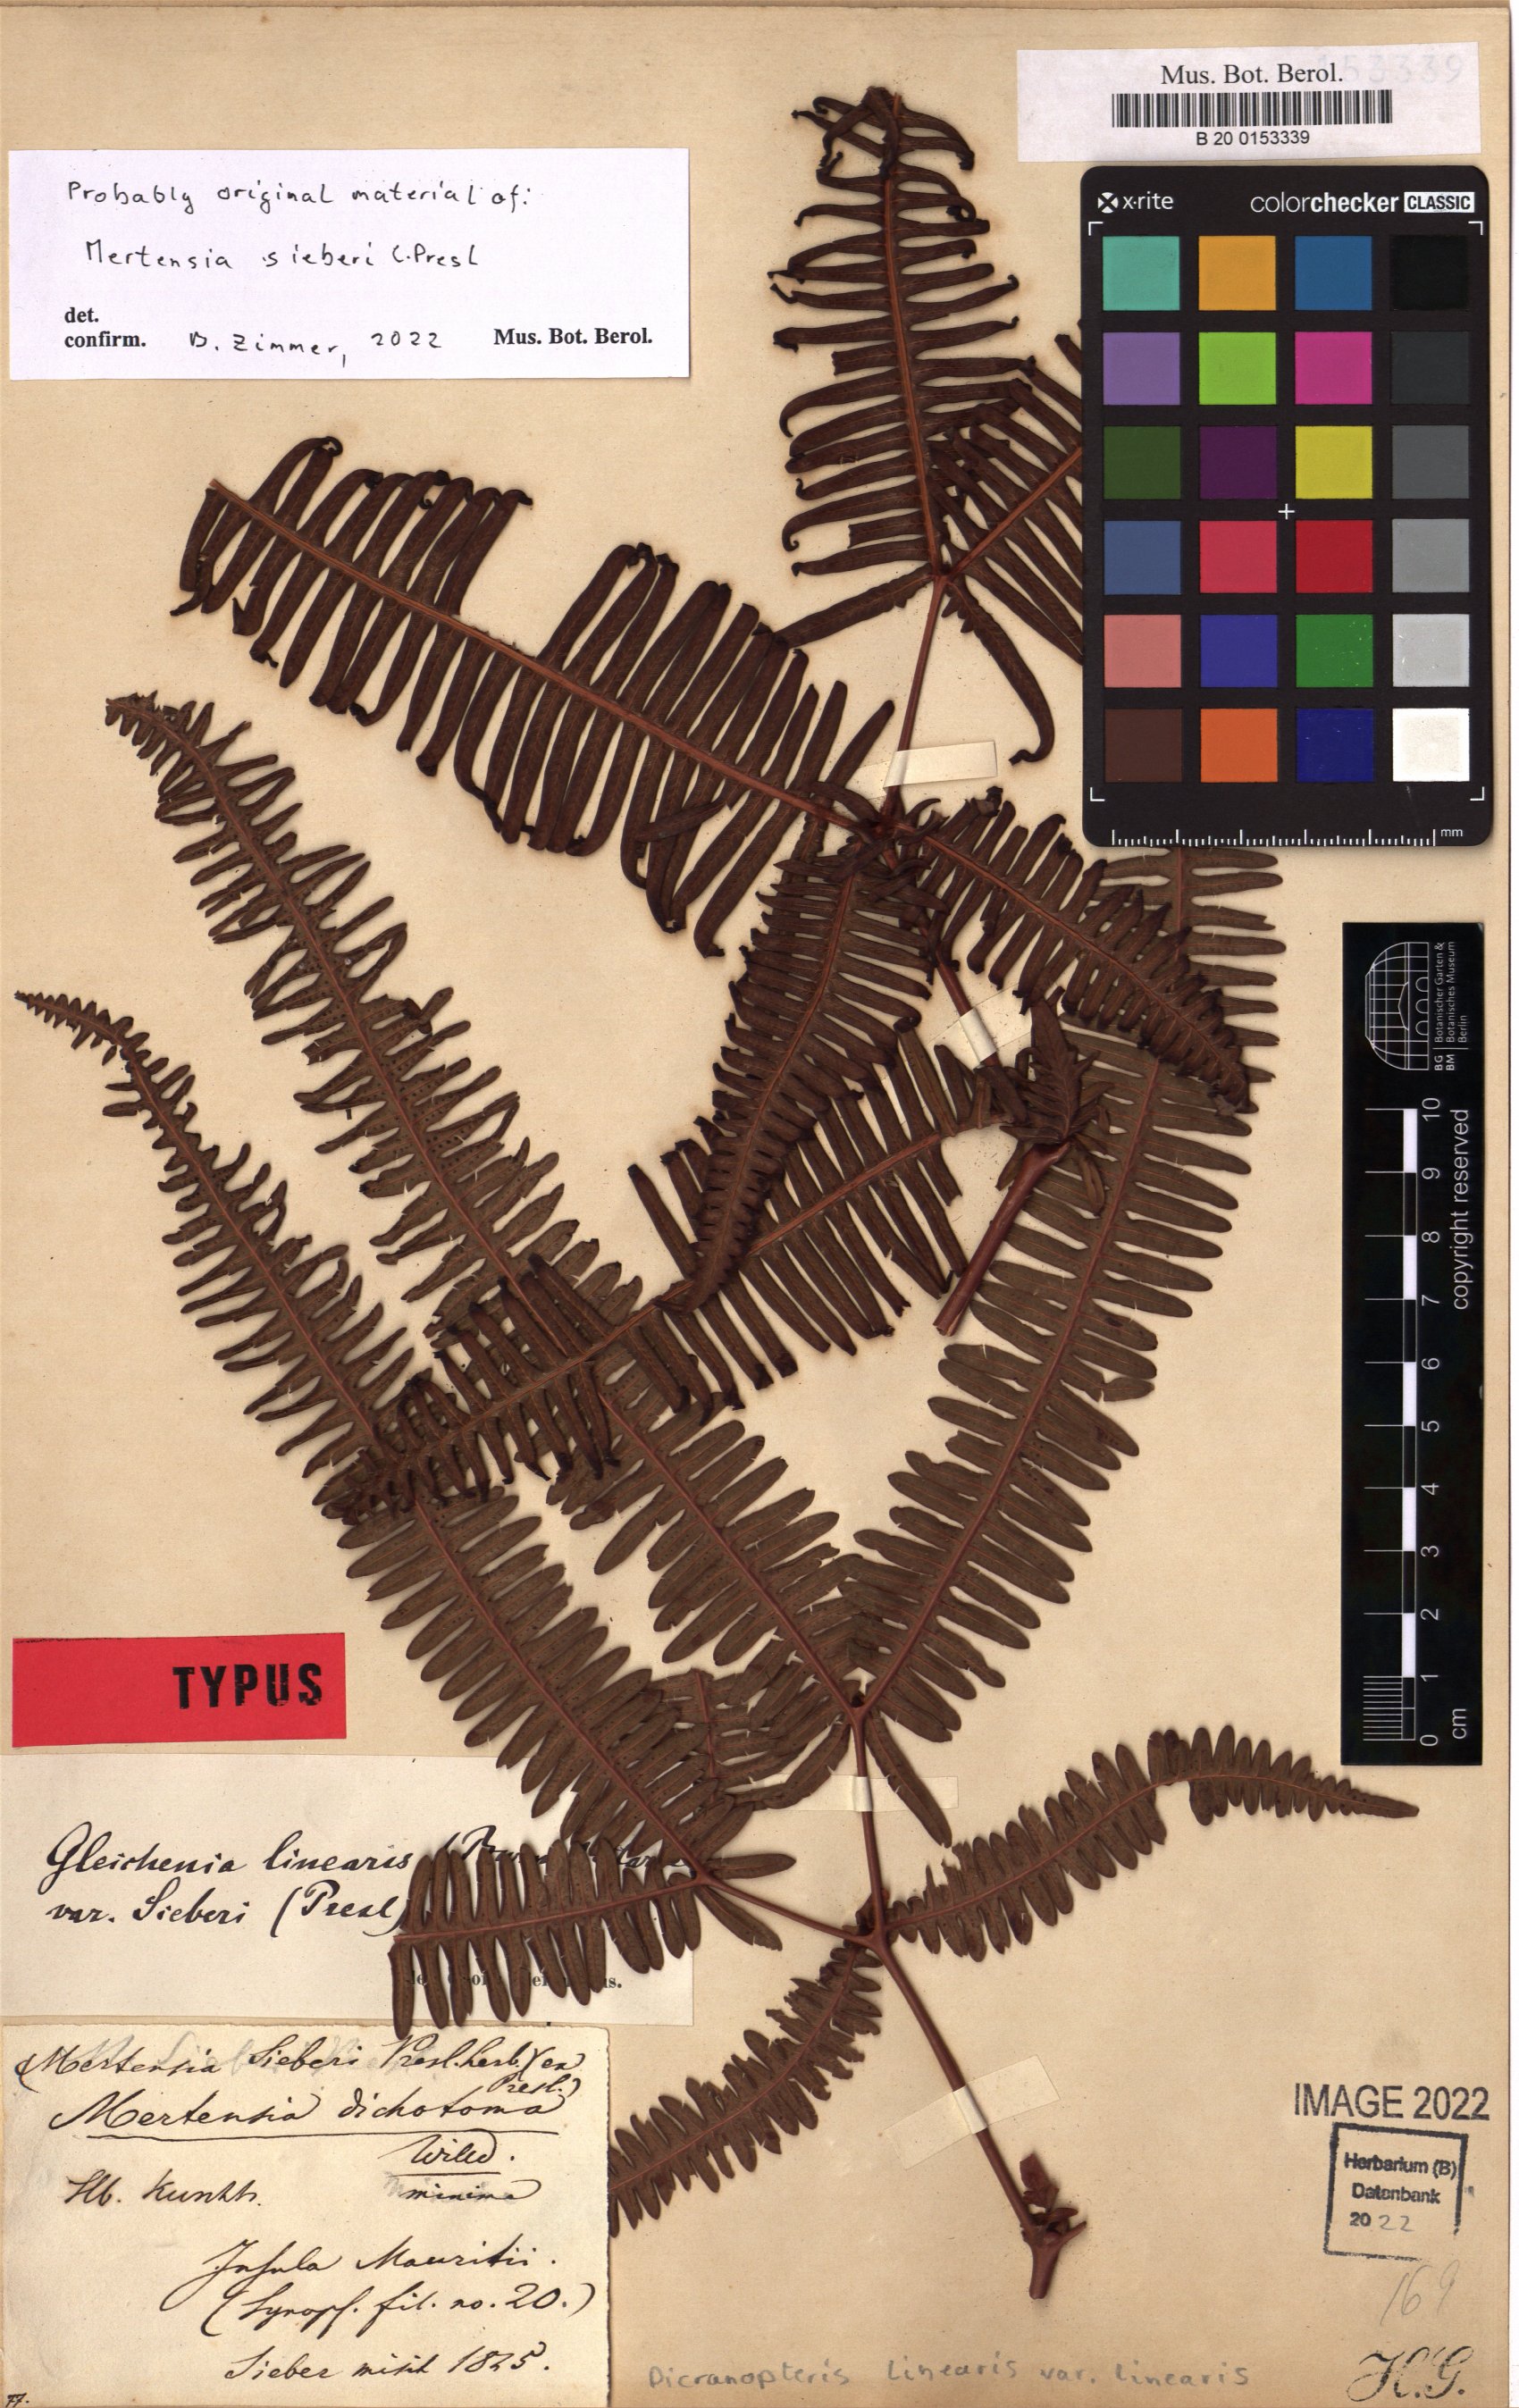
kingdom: Plantae
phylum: Tracheophyta
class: Polypodiopsida
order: Gleicheniales
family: Gleicheniaceae
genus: Dicranopteris
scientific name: Dicranopteris linearis
